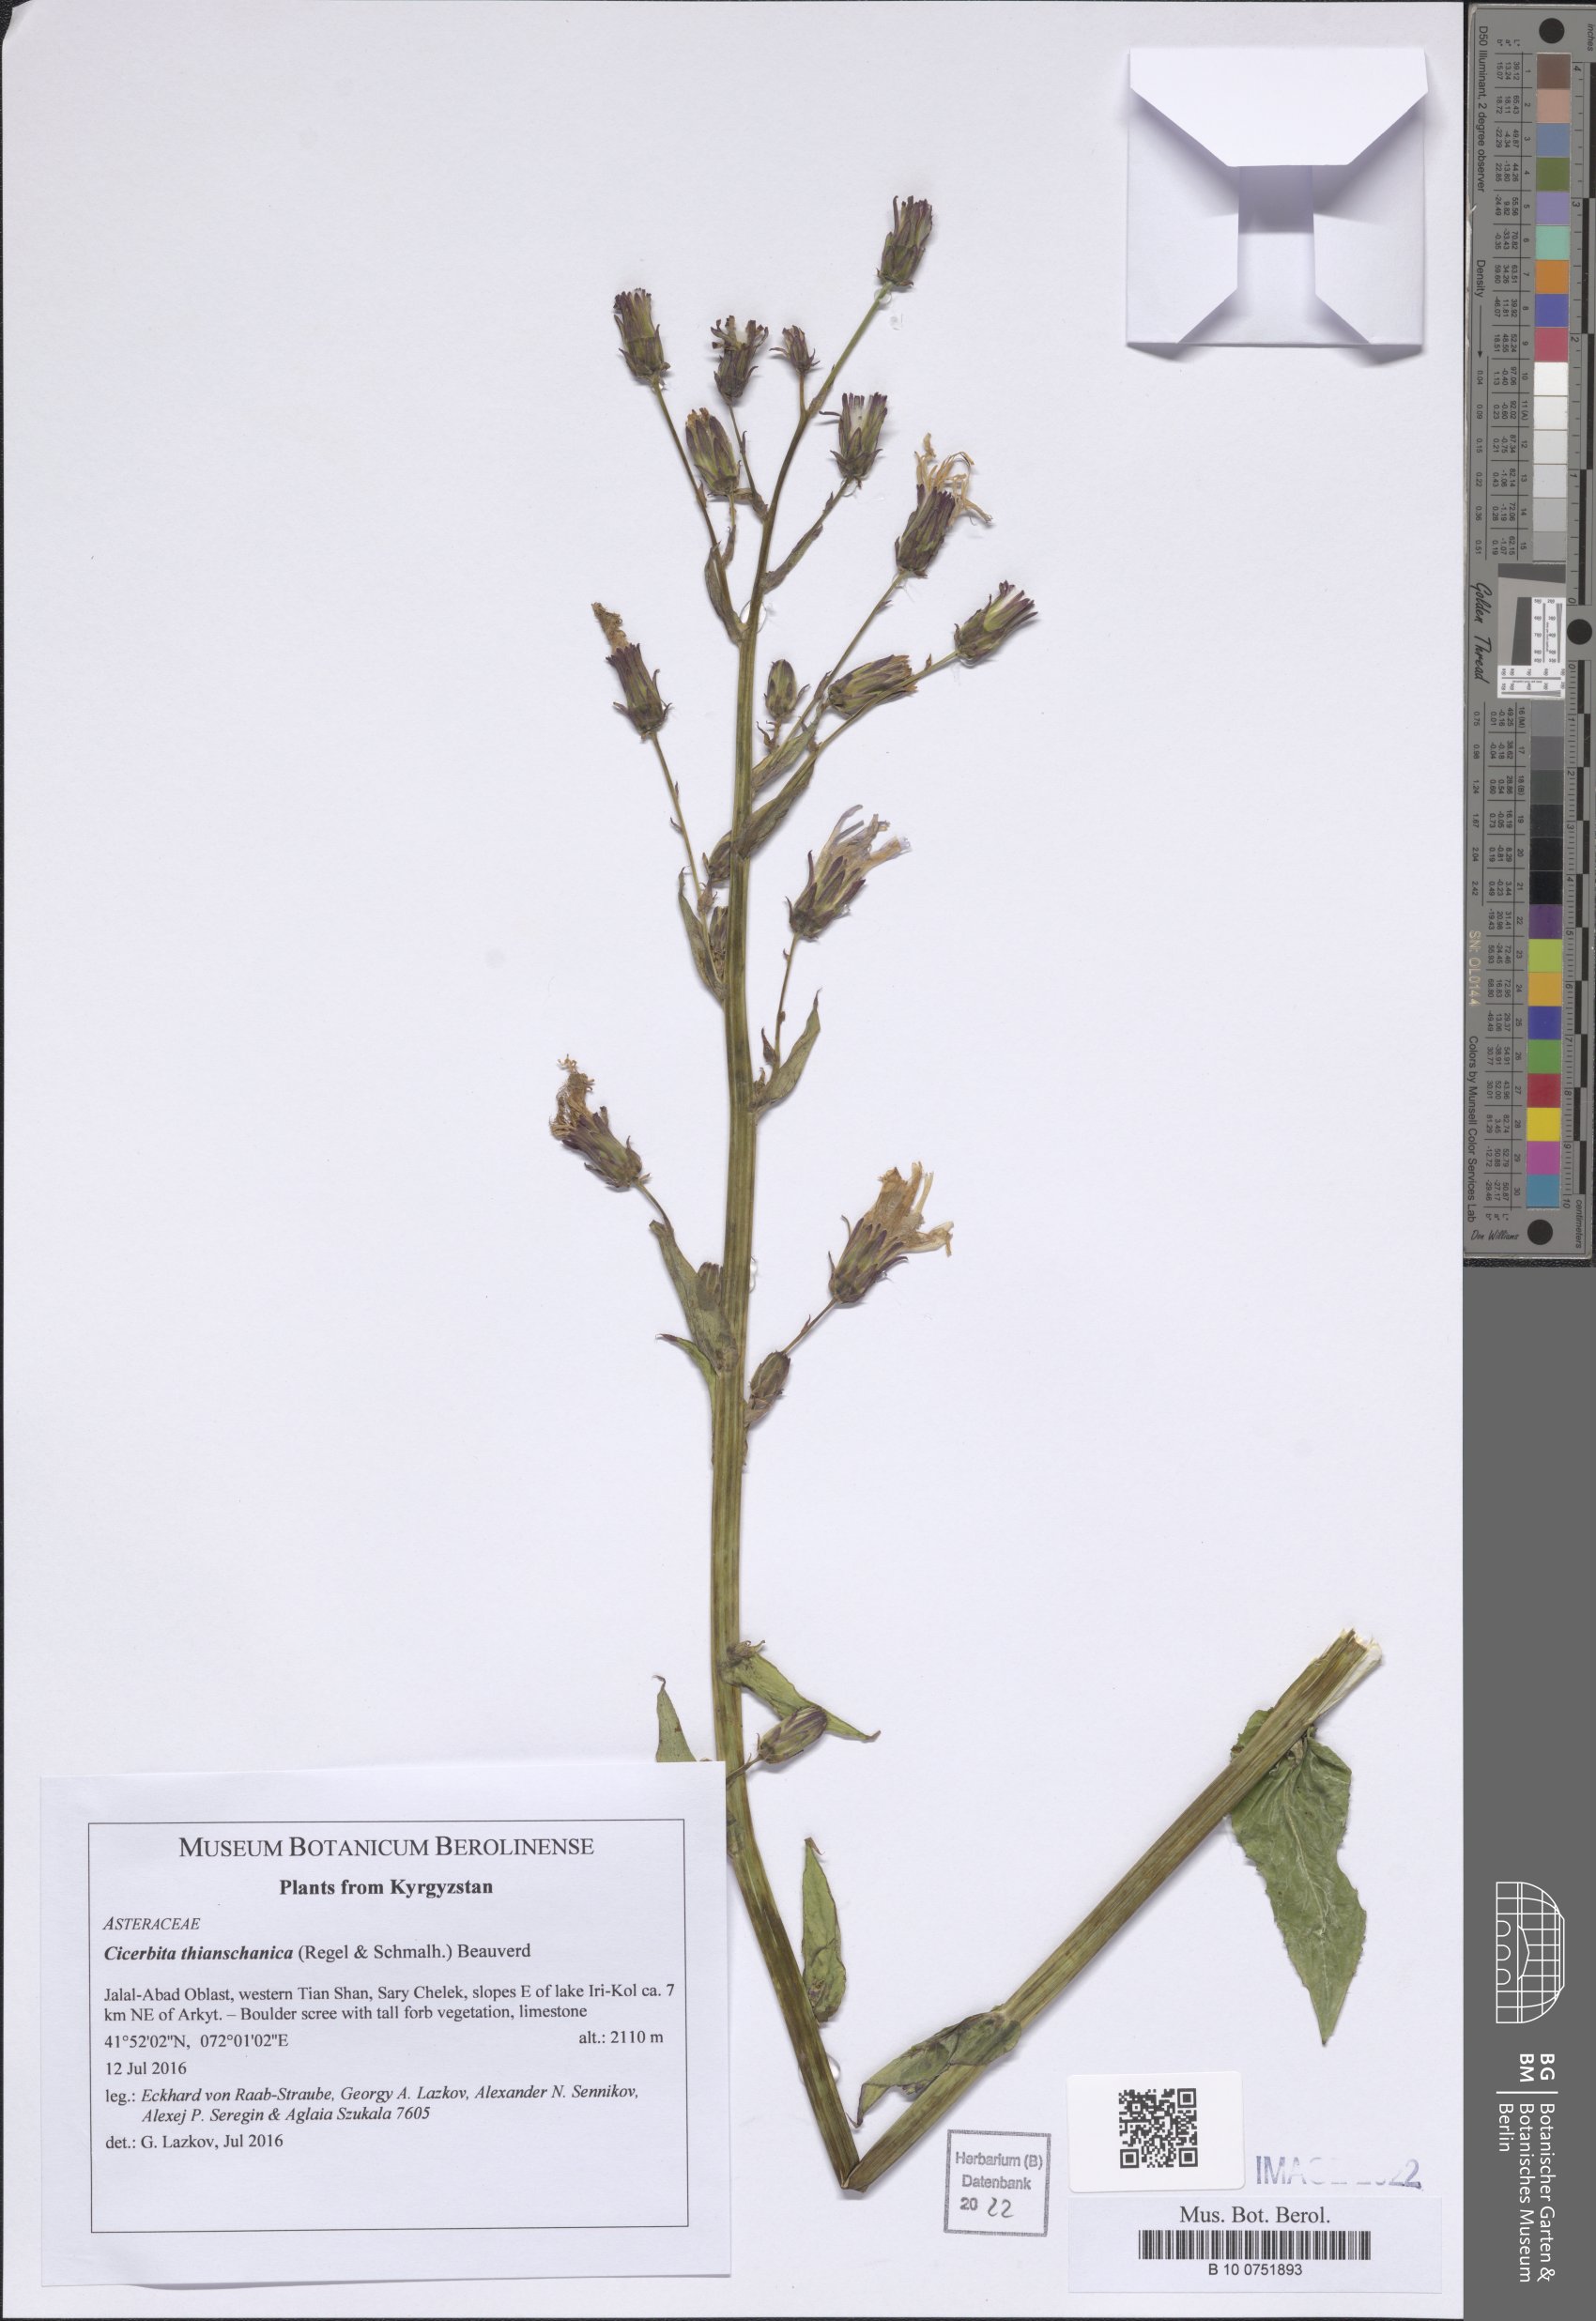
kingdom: Plantae
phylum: Tracheophyta
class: Magnoliopsida
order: Asterales
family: Asteraceae
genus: Cicerbita
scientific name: Cicerbita thianschanica
